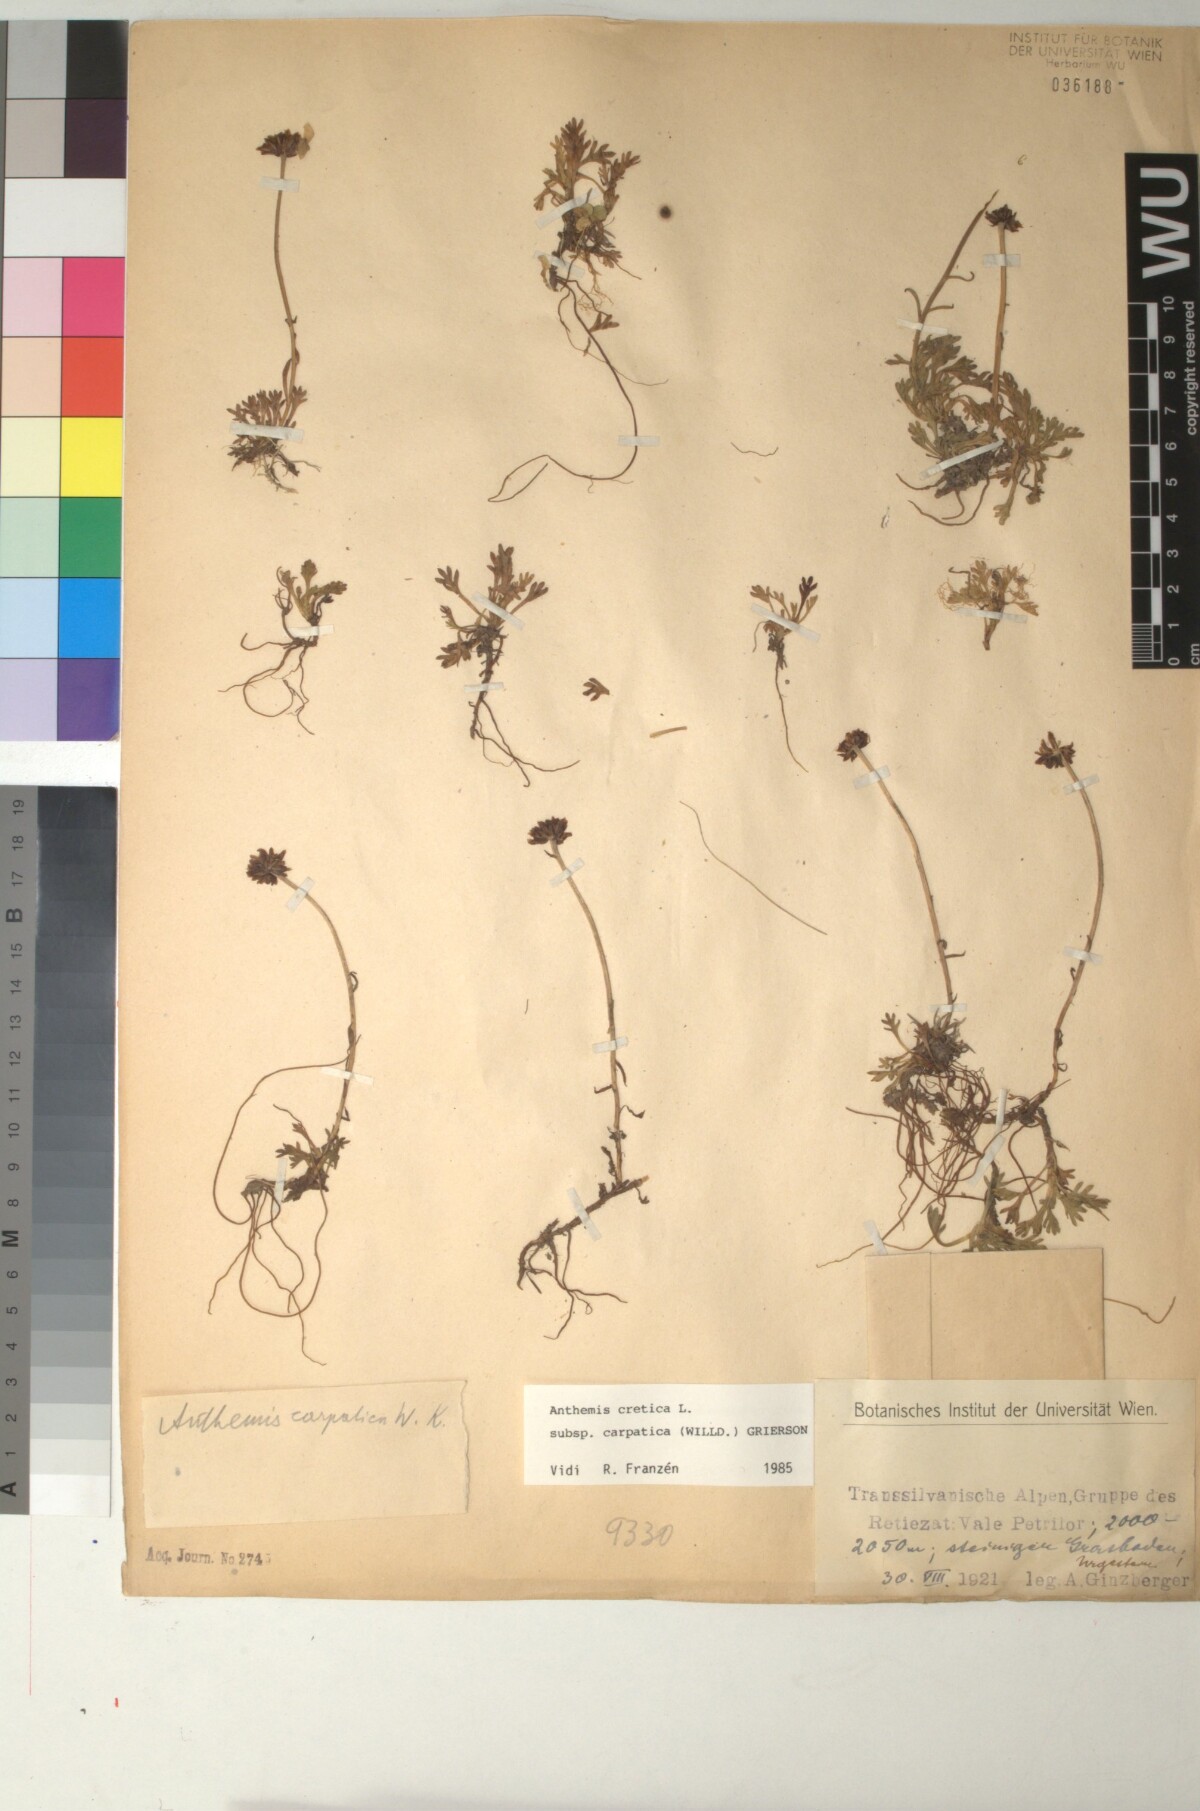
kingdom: Plantae
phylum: Tracheophyta
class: Magnoliopsida
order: Asterales
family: Asteraceae
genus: Anthemis
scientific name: Anthemis cretica
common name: Mountain dog-daisy
